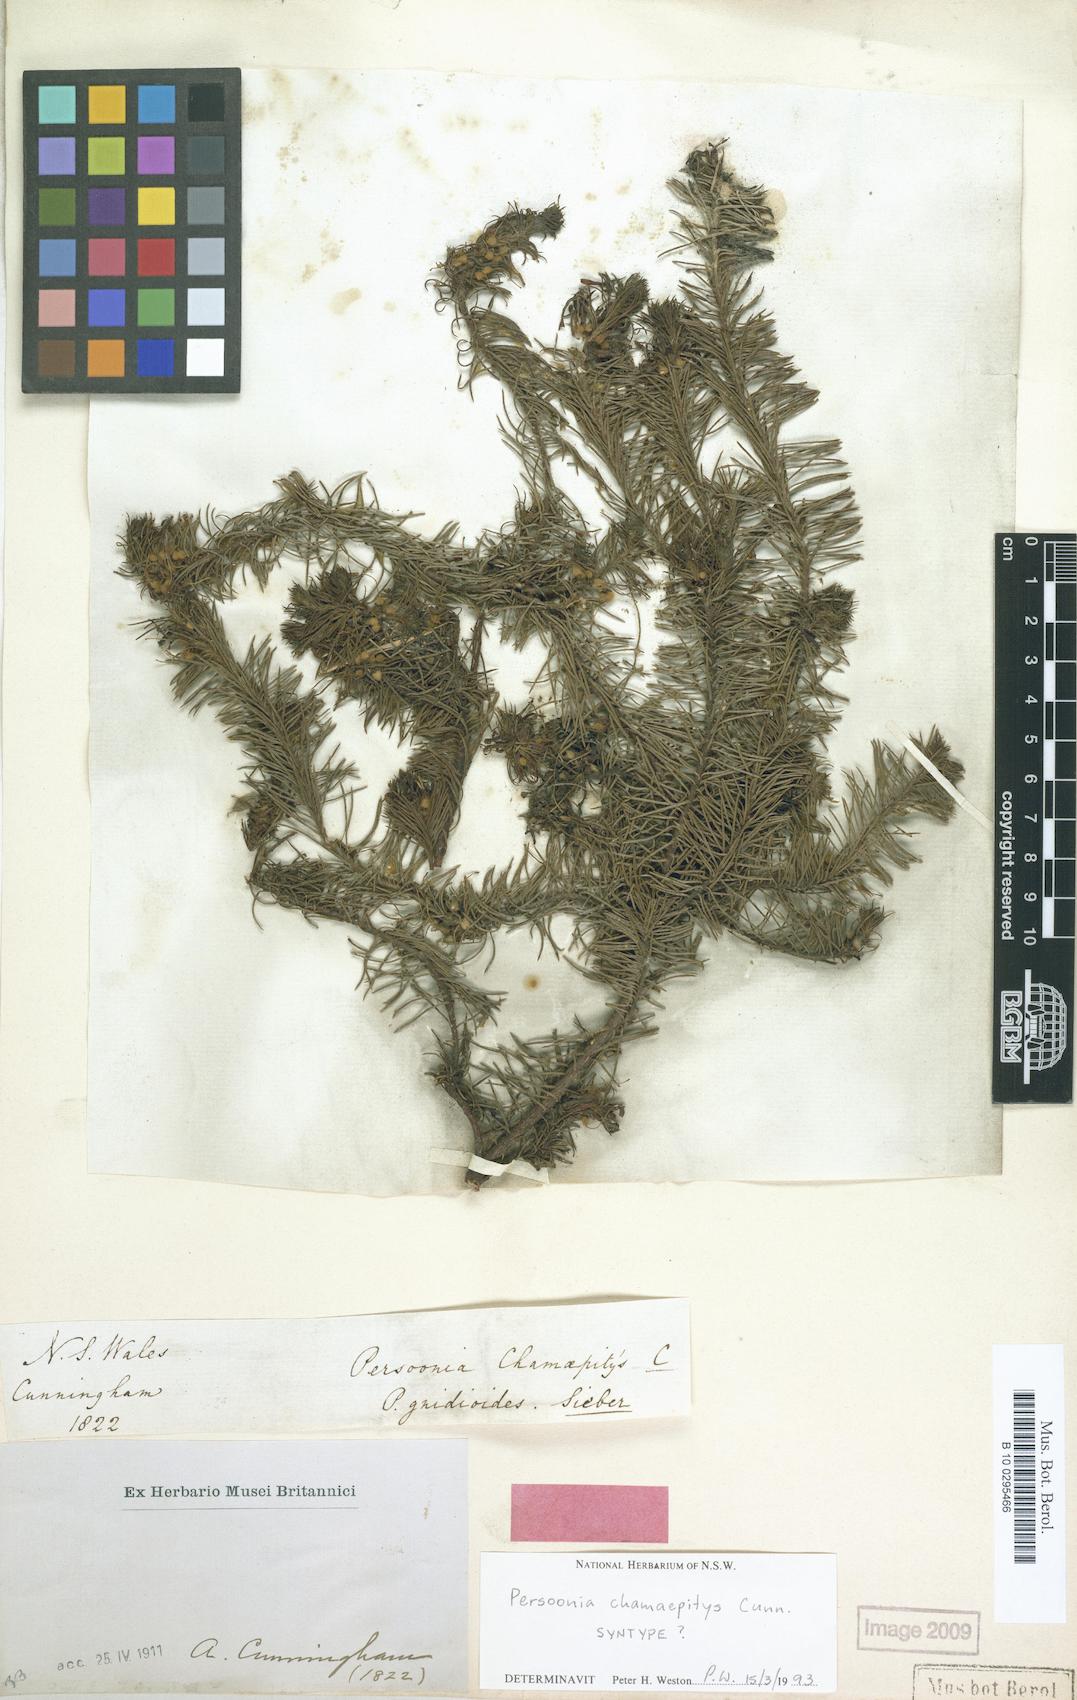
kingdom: Plantae
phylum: Tracheophyta
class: Magnoliopsida
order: Proteales
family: Proteaceae
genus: Persoonia
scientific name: Persoonia chamaepitys
